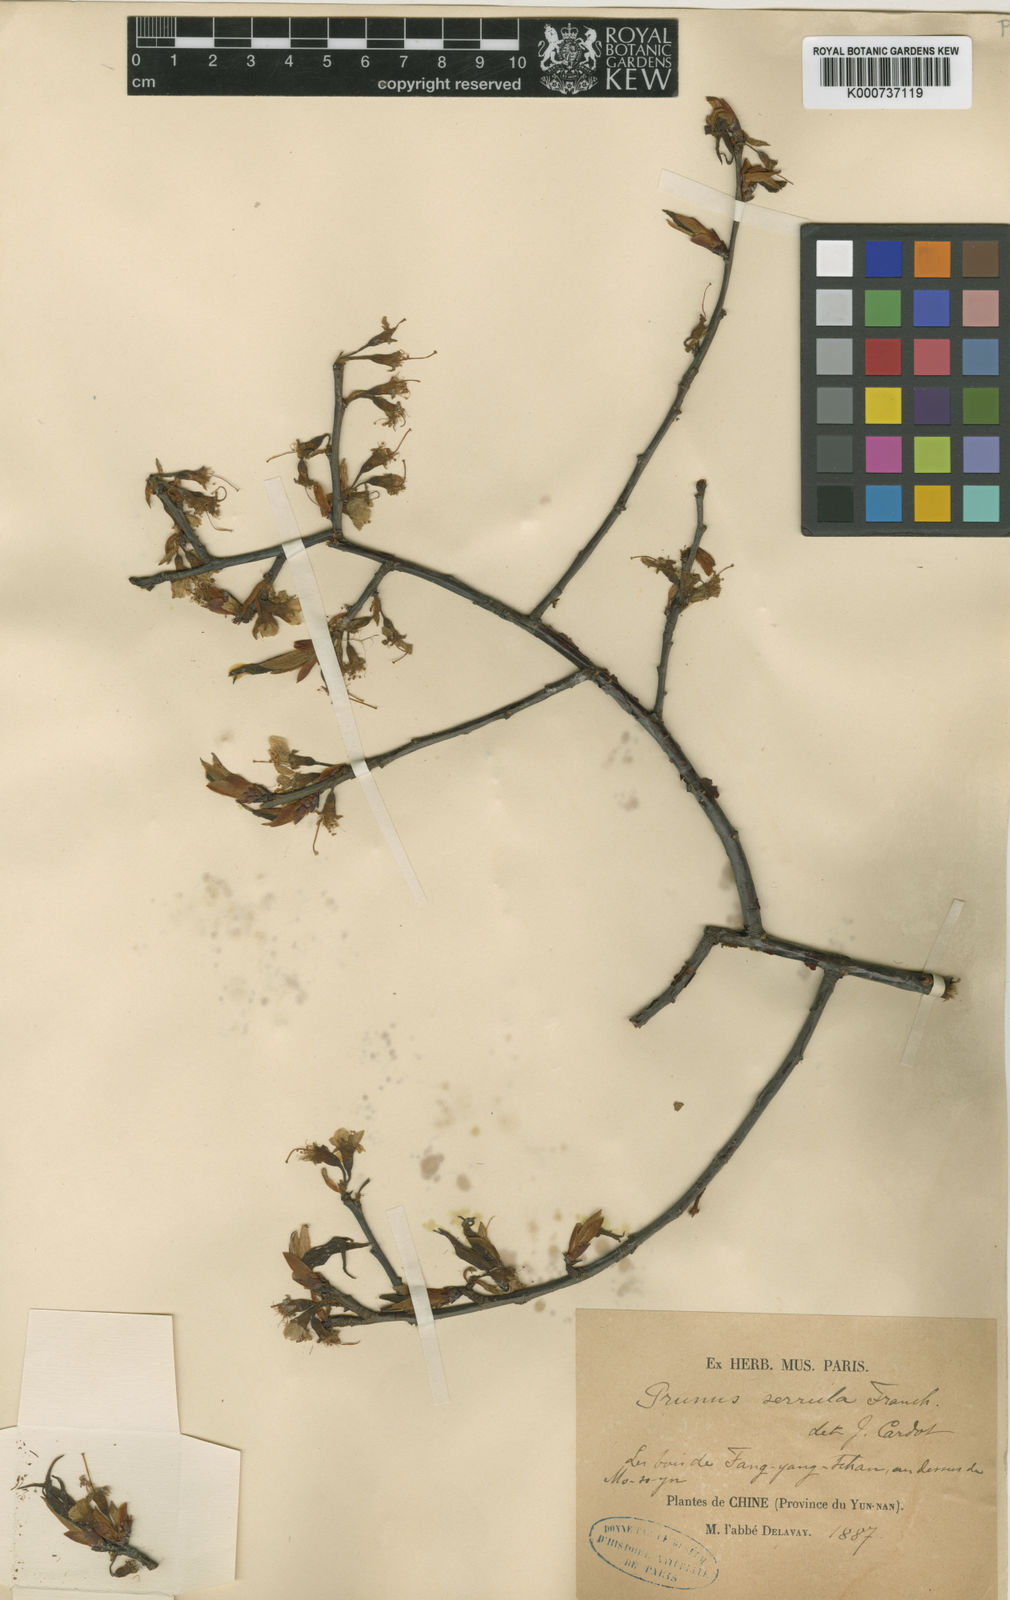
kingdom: Plantae
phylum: Tracheophyta
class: Magnoliopsida
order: Rosales
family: Rosaceae
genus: Prunus
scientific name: Prunus serrula
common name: Birchbark cherry
